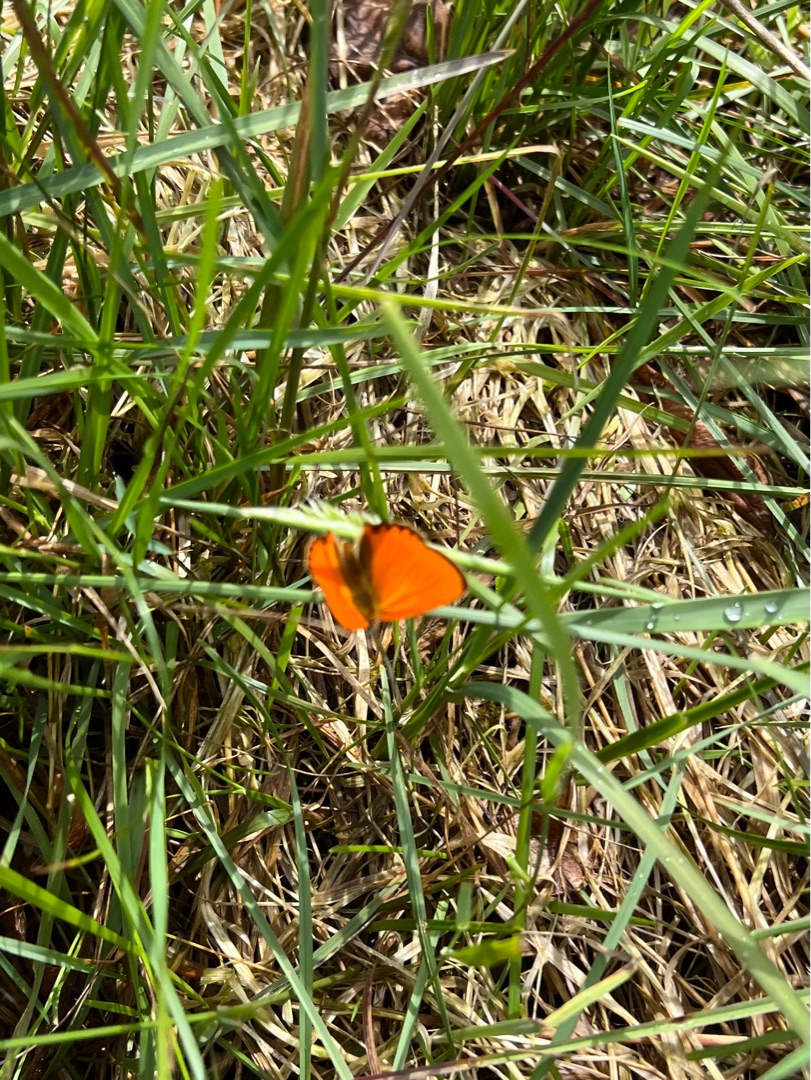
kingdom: Animalia
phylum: Arthropoda
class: Insecta
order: Lepidoptera
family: Lycaenidae
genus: Lycaena
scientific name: Lycaena virgaureae
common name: Dukatsommerfugl
